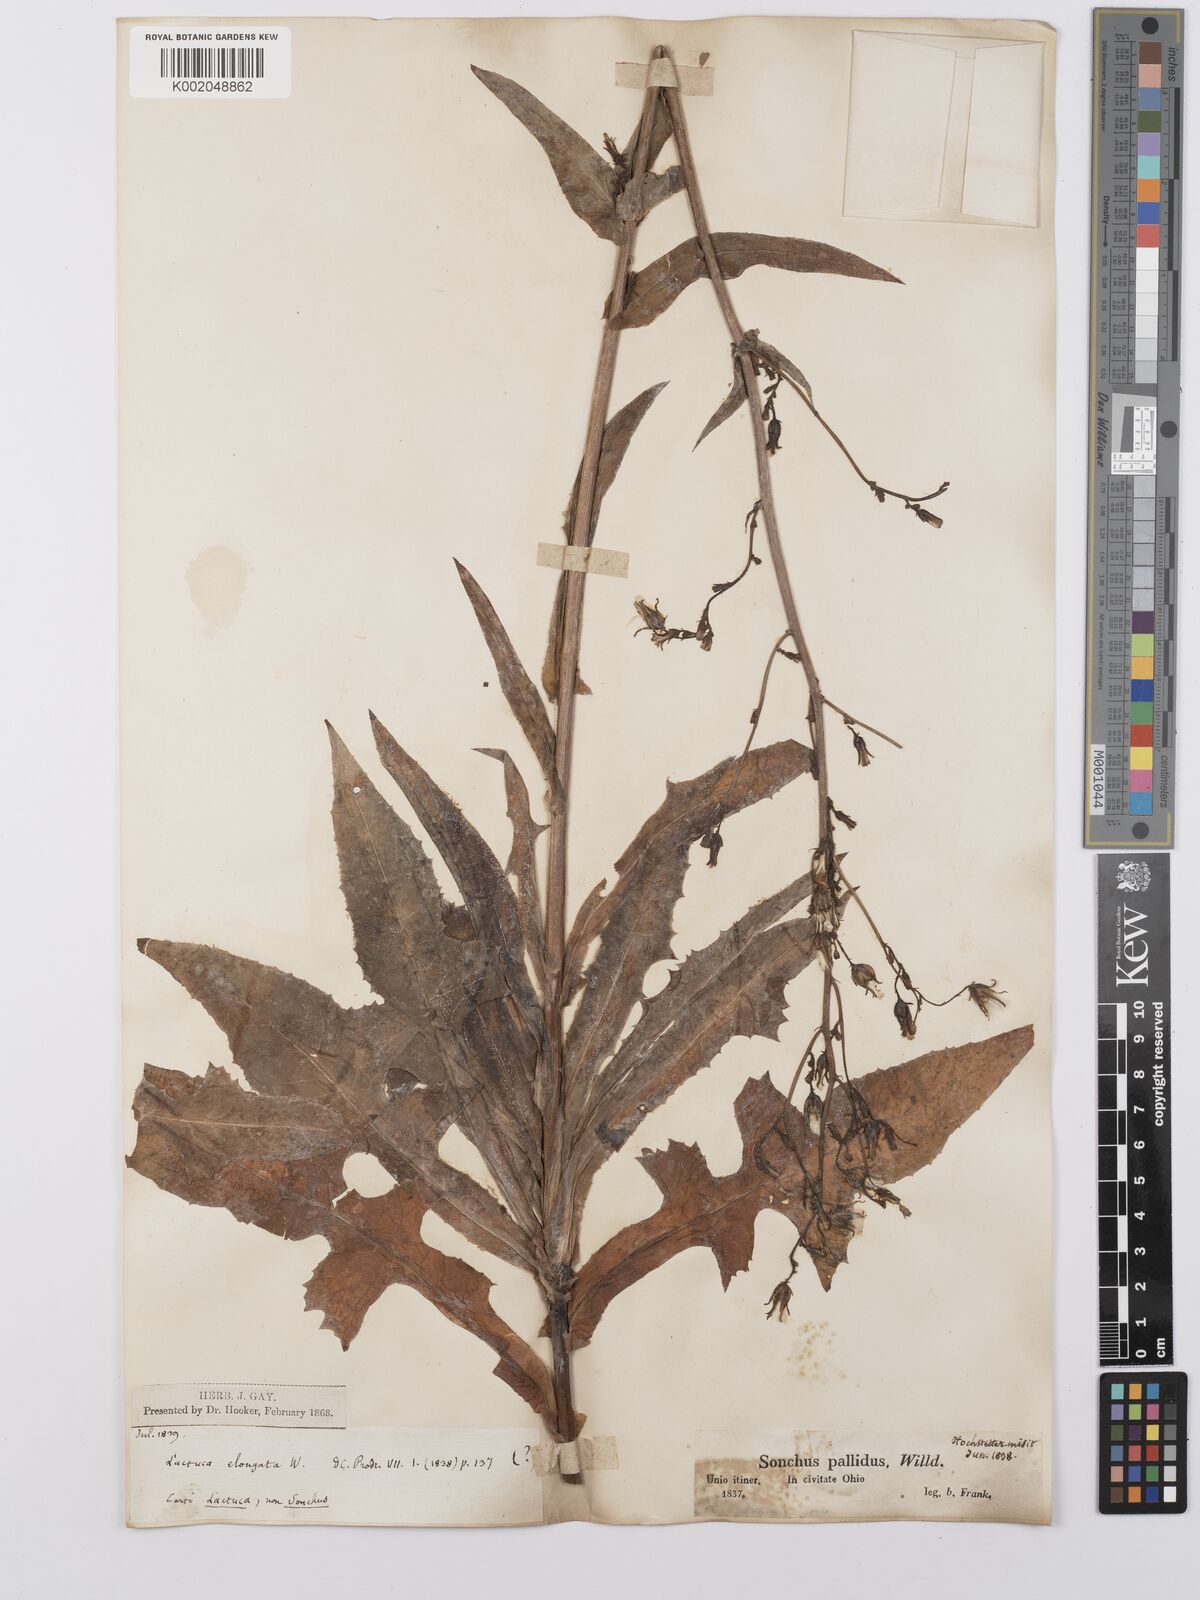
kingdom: Plantae
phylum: Tracheophyta
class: Magnoliopsida
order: Asterales
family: Asteraceae
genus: Lactuca
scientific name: Lactuca canadensis
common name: Canada lettuce
